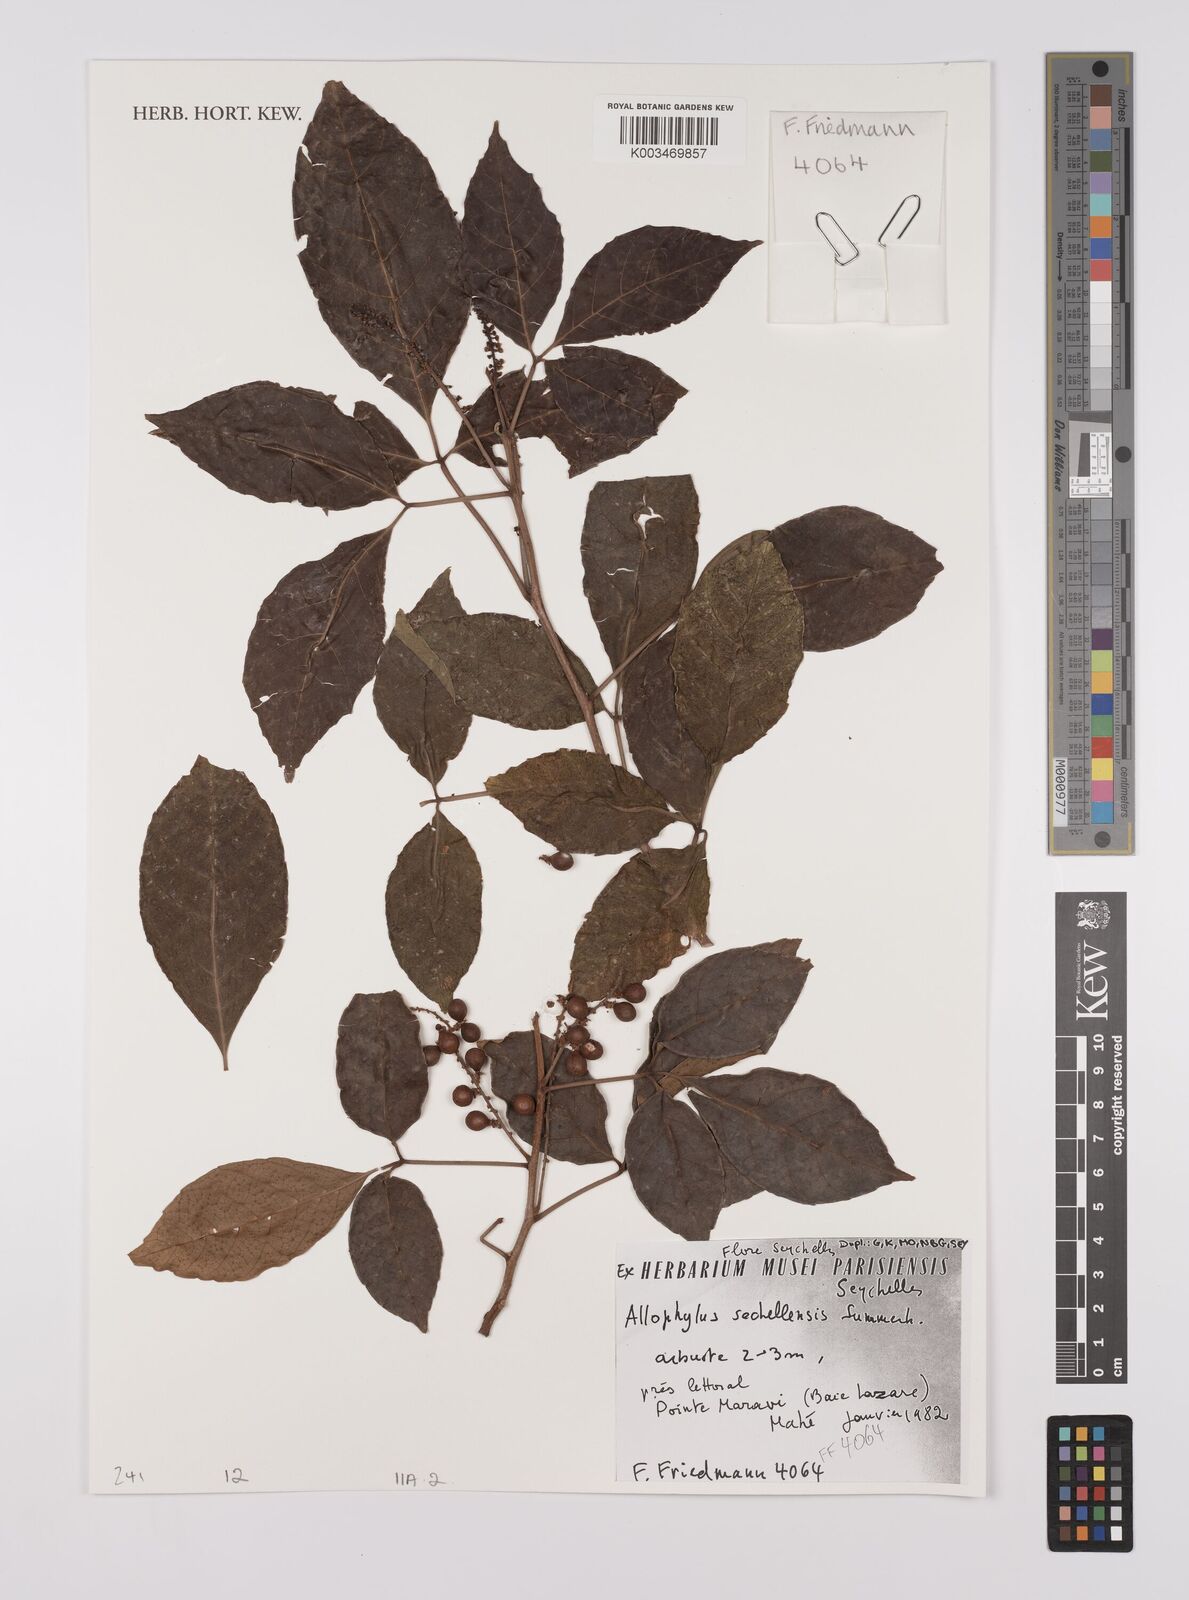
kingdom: Plantae
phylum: Tracheophyta
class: Magnoliopsida
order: Sapindales
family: Sapindaceae
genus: Allophylus
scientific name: Allophylus sechellensis
